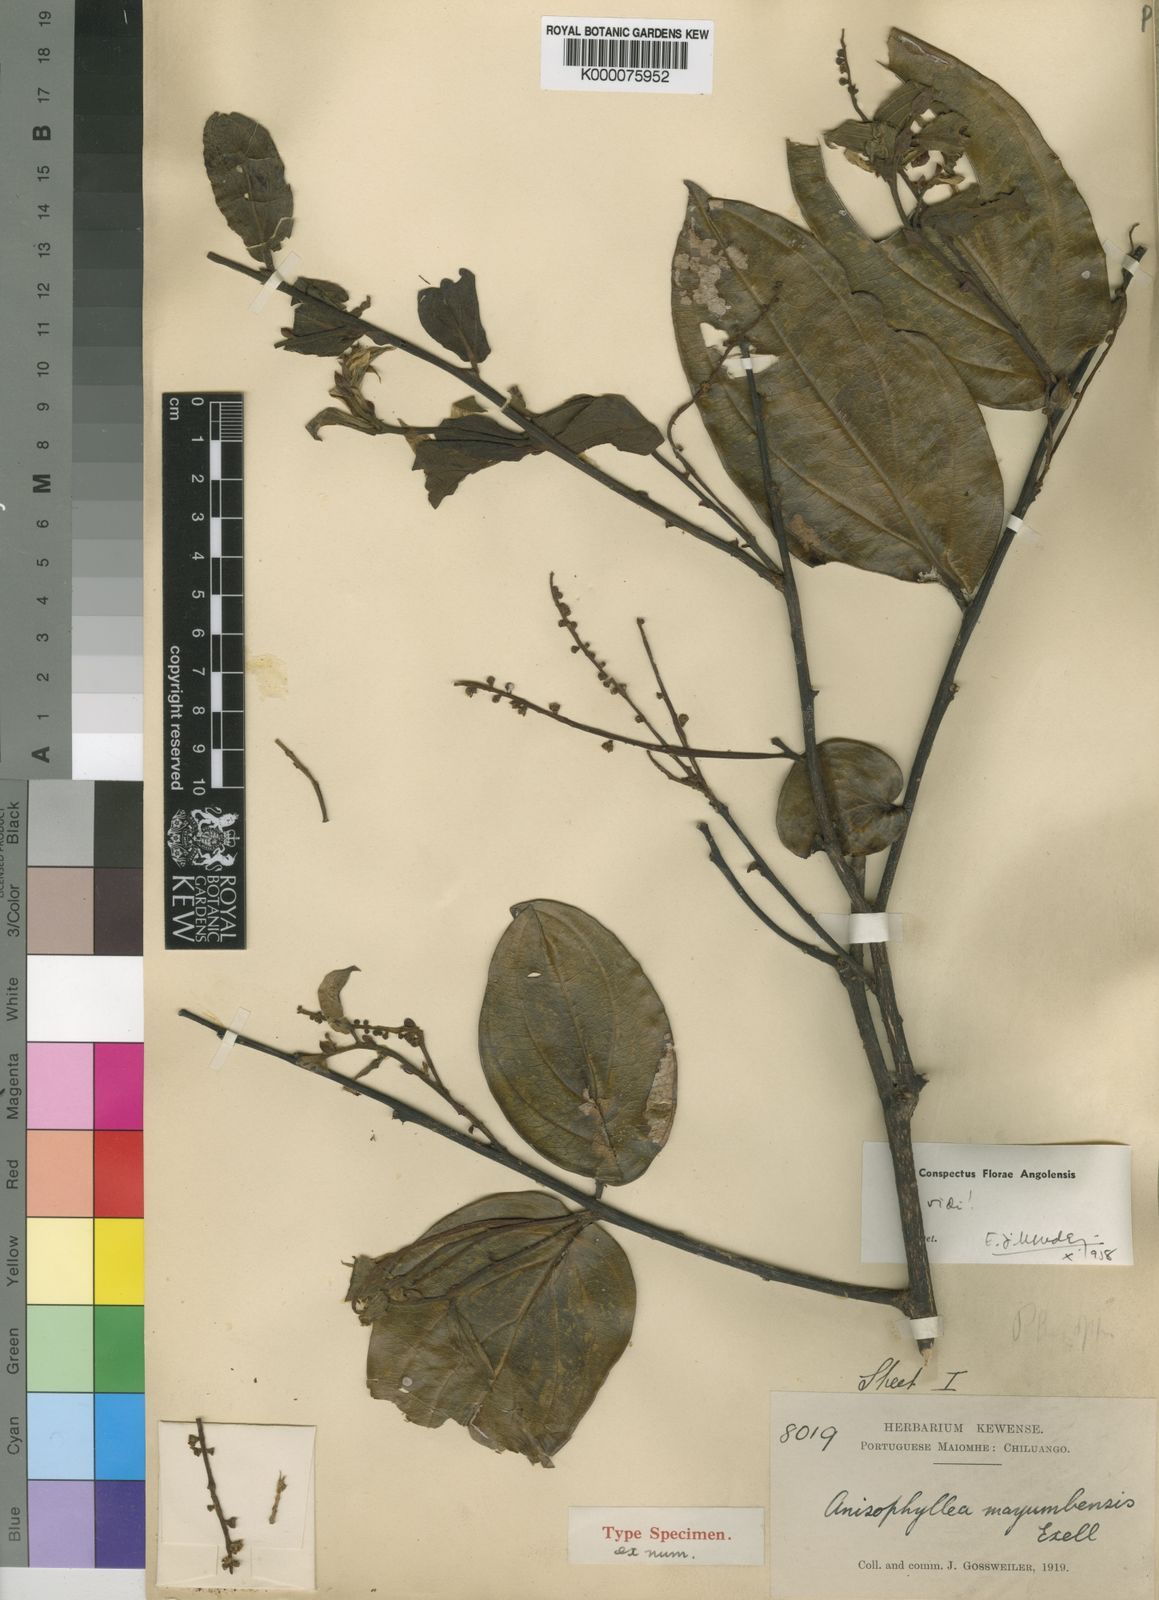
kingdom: Plantae
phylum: Tracheophyta
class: Magnoliopsida
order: Cucurbitales
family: Anisophylleaceae
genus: Anisophyllea
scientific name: Anisophyllea mayumbensis
